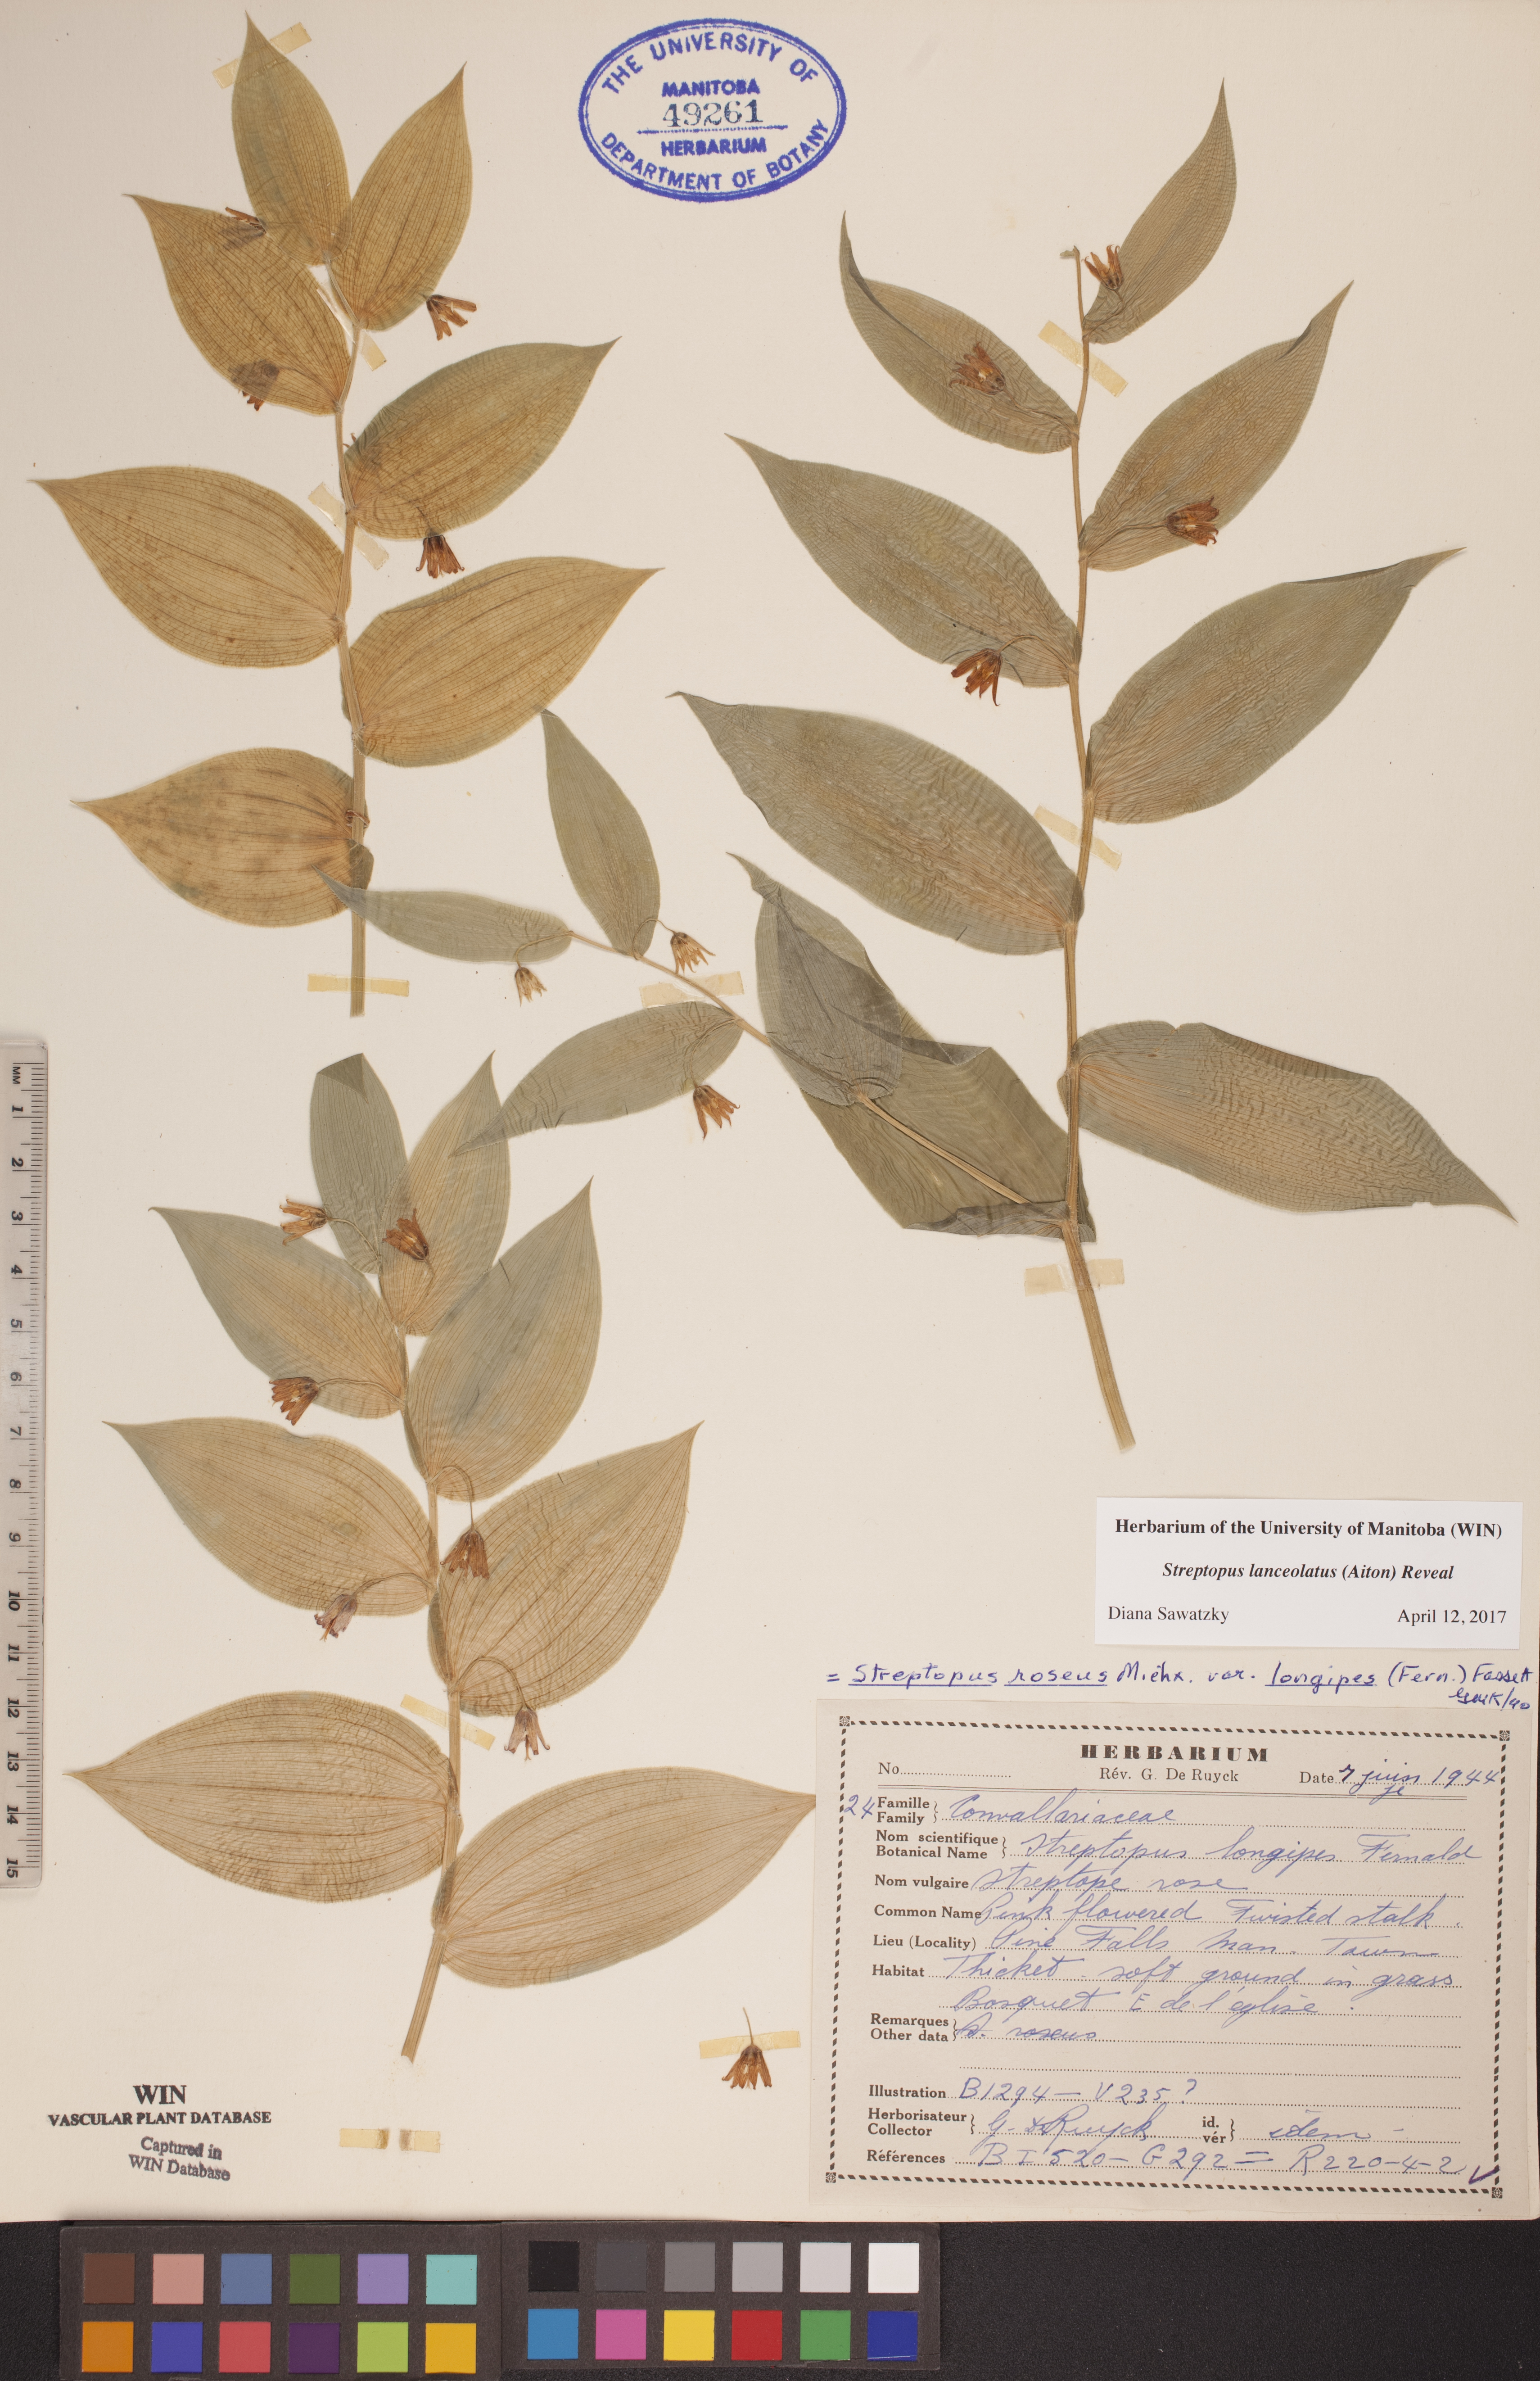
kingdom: Plantae
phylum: Tracheophyta
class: Liliopsida
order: Liliales
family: Liliaceae
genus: Streptopus
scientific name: Streptopus lanceolatus
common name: Rose mandarin
